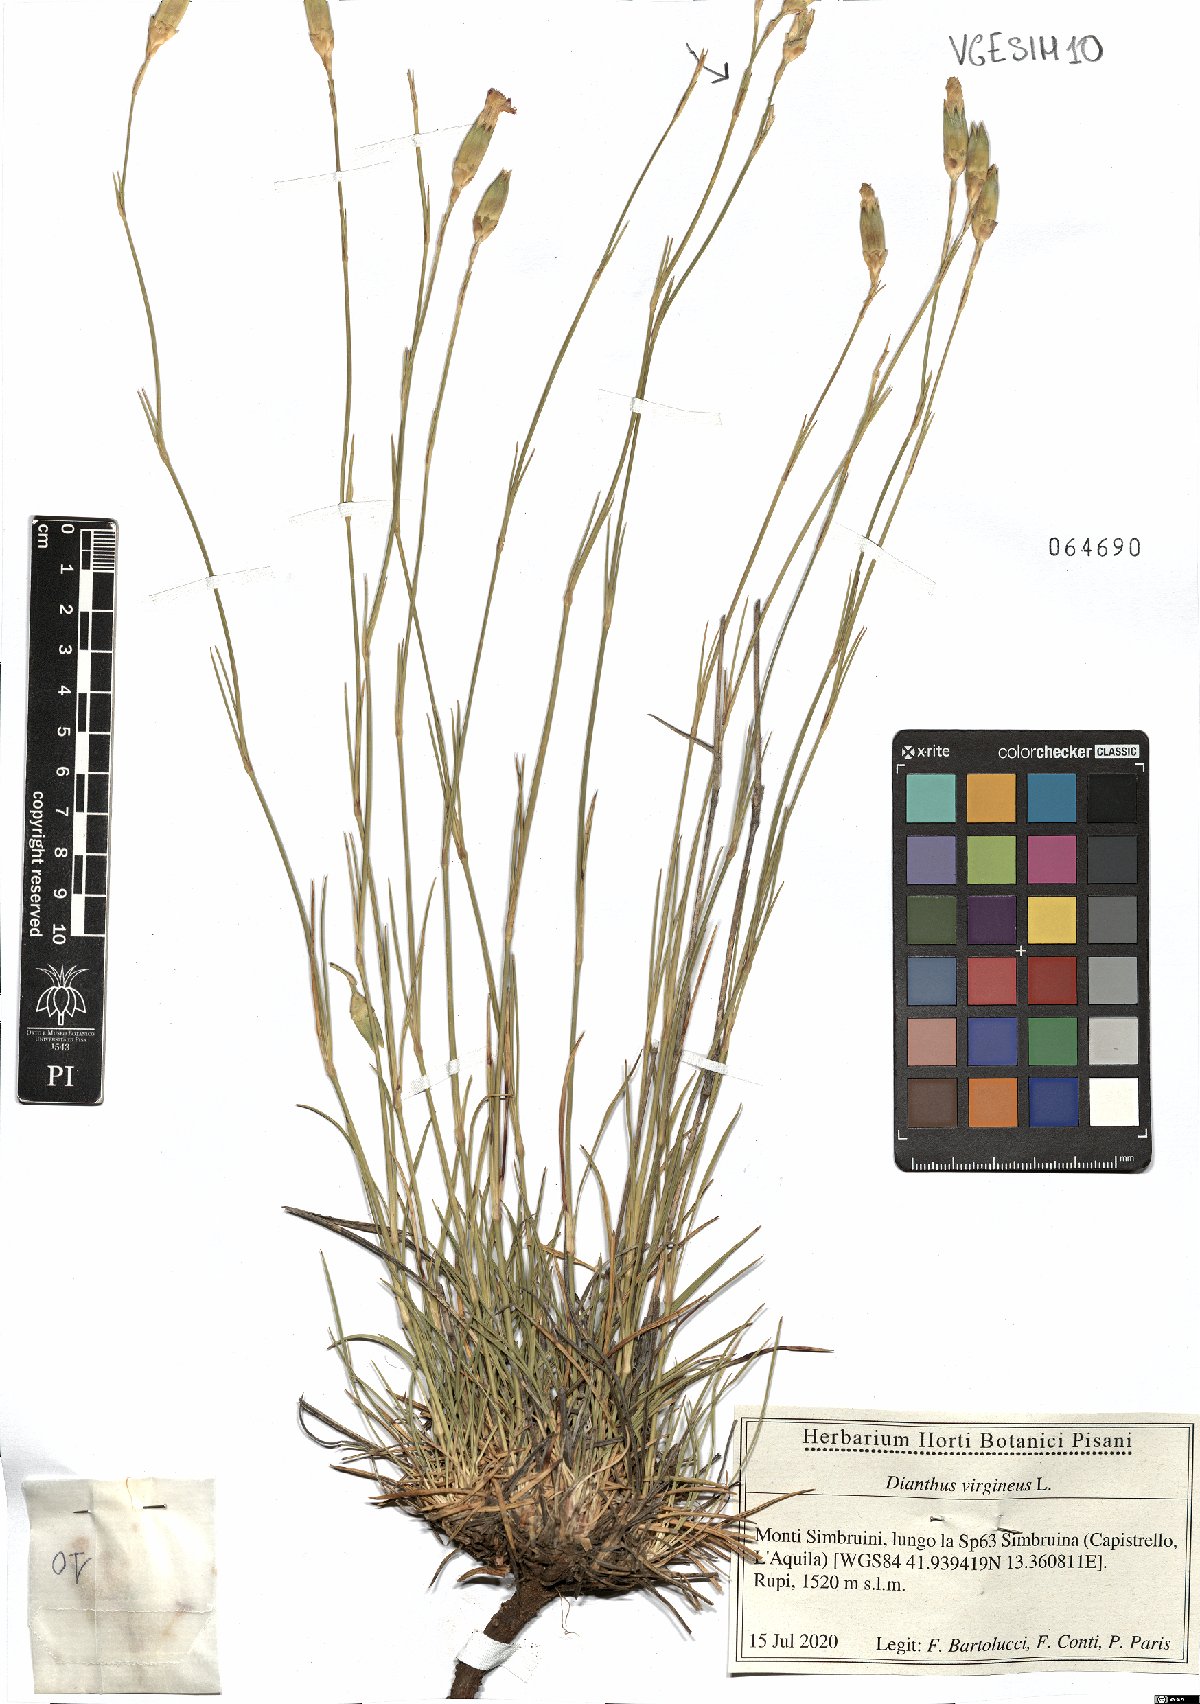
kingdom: Plantae
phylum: Tracheophyta
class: Magnoliopsida
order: Caryophyllales
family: Caryophyllaceae
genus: Dianthus
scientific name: Dianthus virgineus
